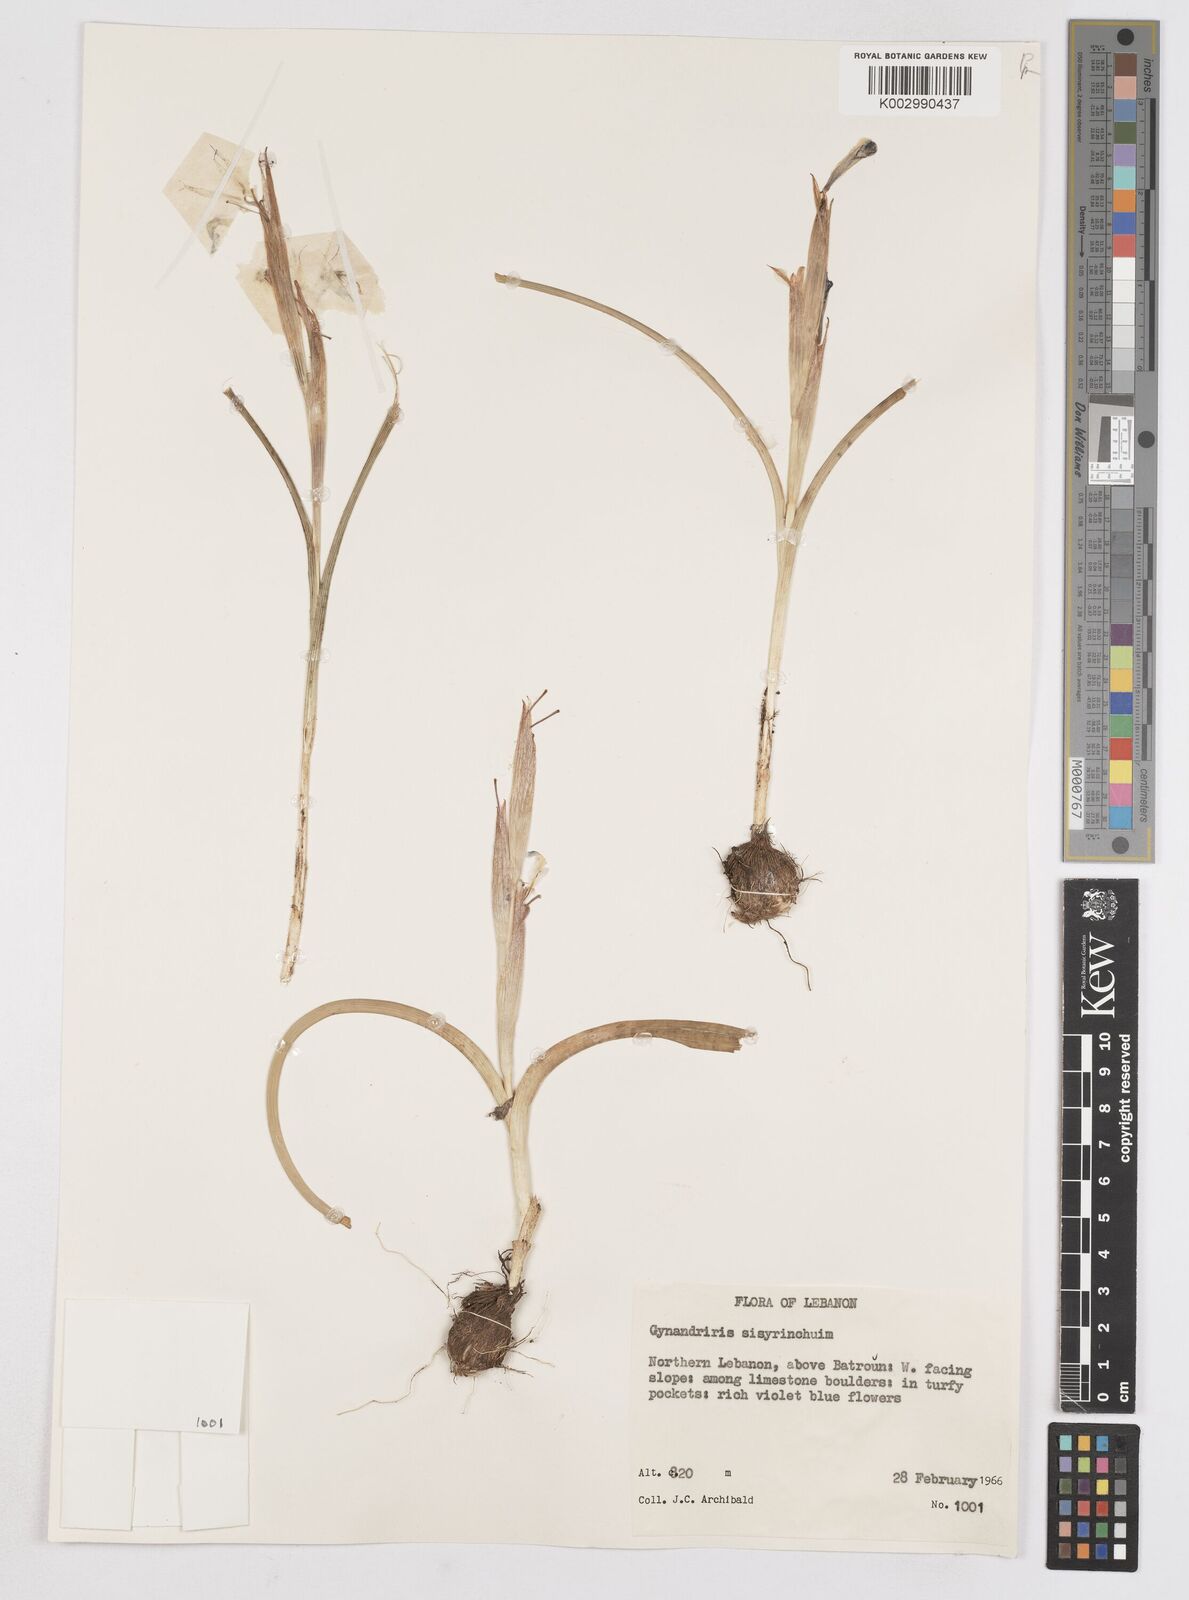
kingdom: Plantae
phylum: Tracheophyta
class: Liliopsida
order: Asparagales
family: Iridaceae
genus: Moraea
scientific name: Moraea sisyrinchium
